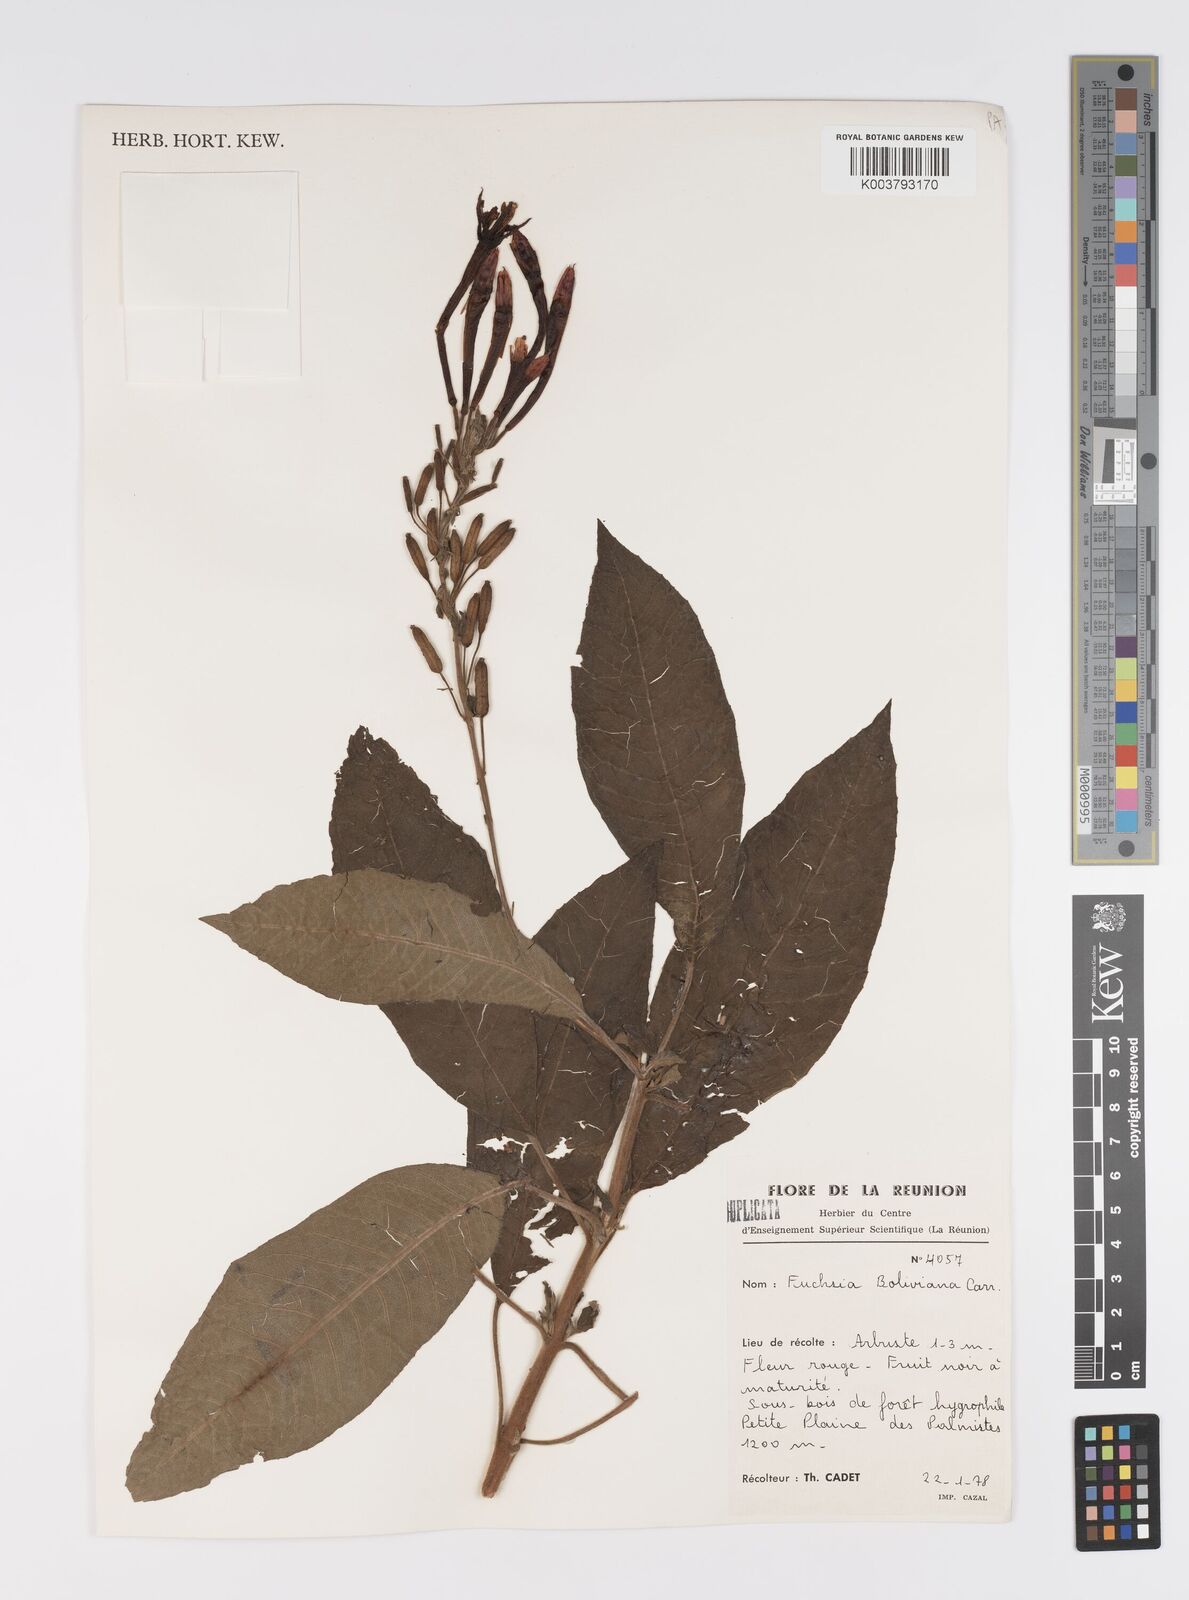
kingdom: Plantae
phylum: Tracheophyta
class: Magnoliopsida
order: Myrtales
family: Onagraceae
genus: Fuchsia
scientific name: Fuchsia boliviana
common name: Bolivian fuchsia
